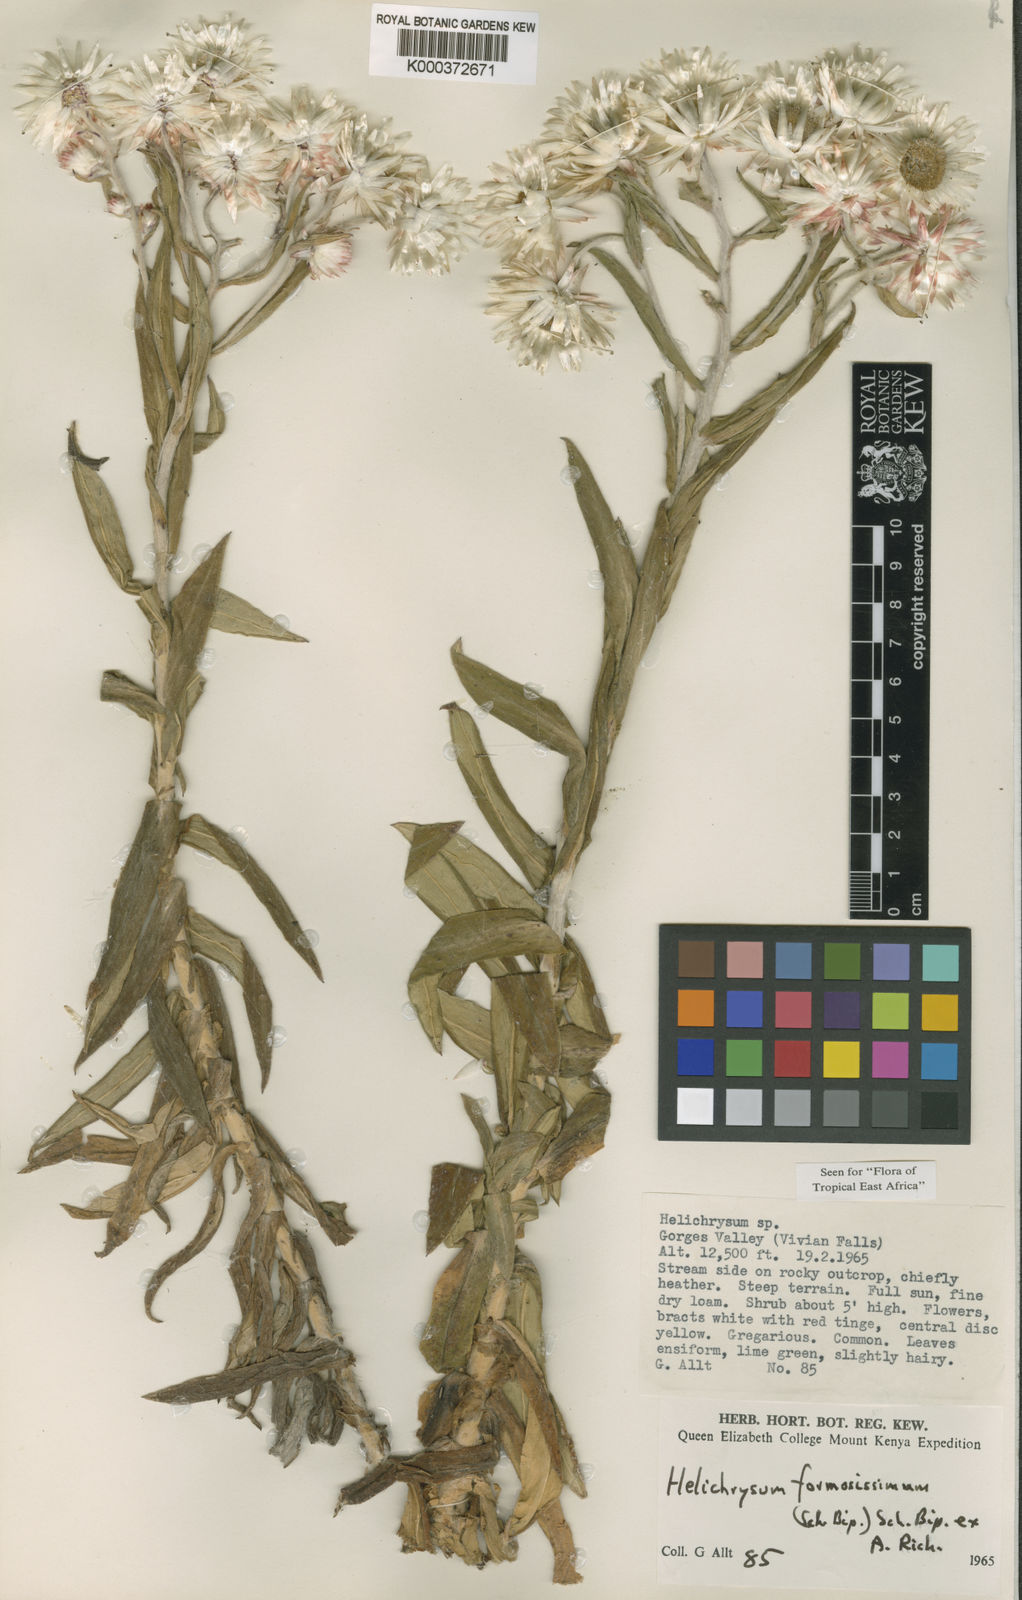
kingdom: Plantae
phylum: Tracheophyta
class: Magnoliopsida
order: Asterales
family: Asteraceae
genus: Helichrysum
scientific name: Helichrysum formosissimum
